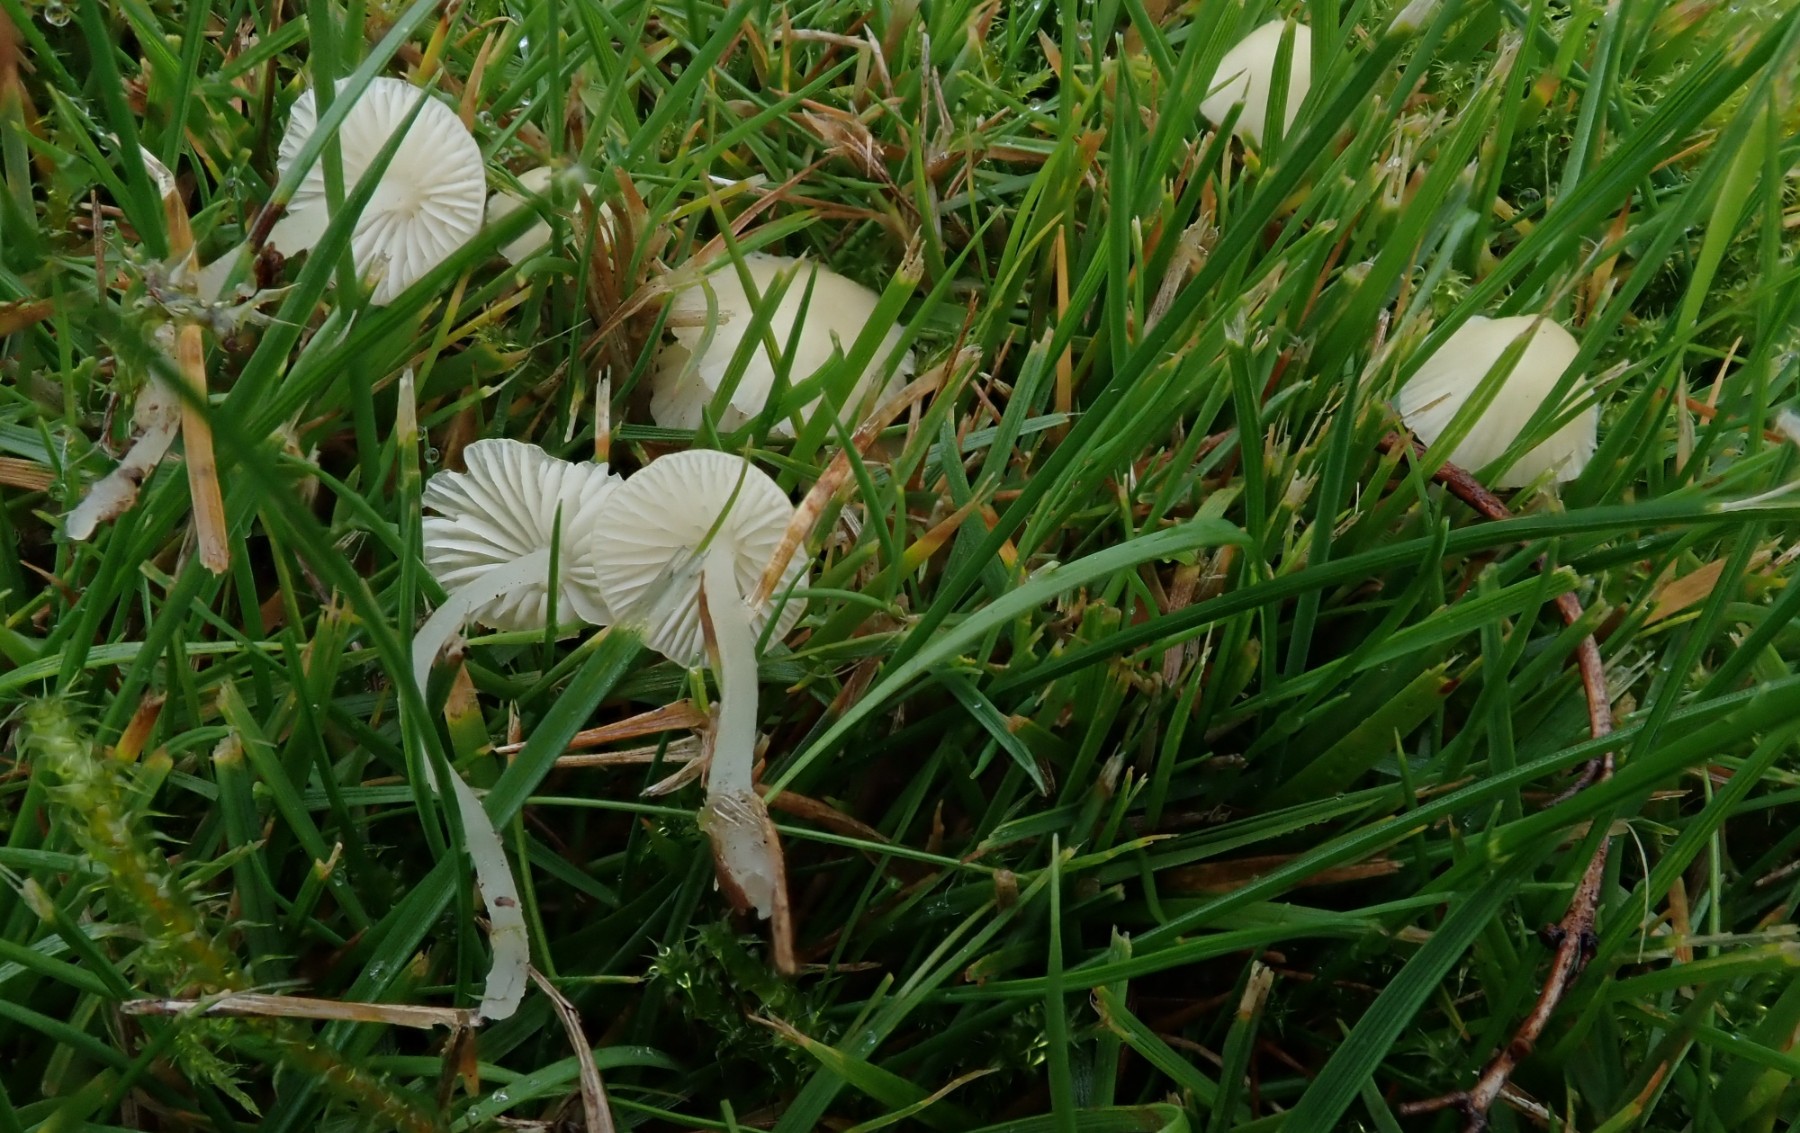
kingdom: Fungi
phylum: Basidiomycota
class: Agaricomycetes
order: Agaricales
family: Mycenaceae
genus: Atheniella
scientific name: Atheniella flavoalba
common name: gulhvid huesvamp
